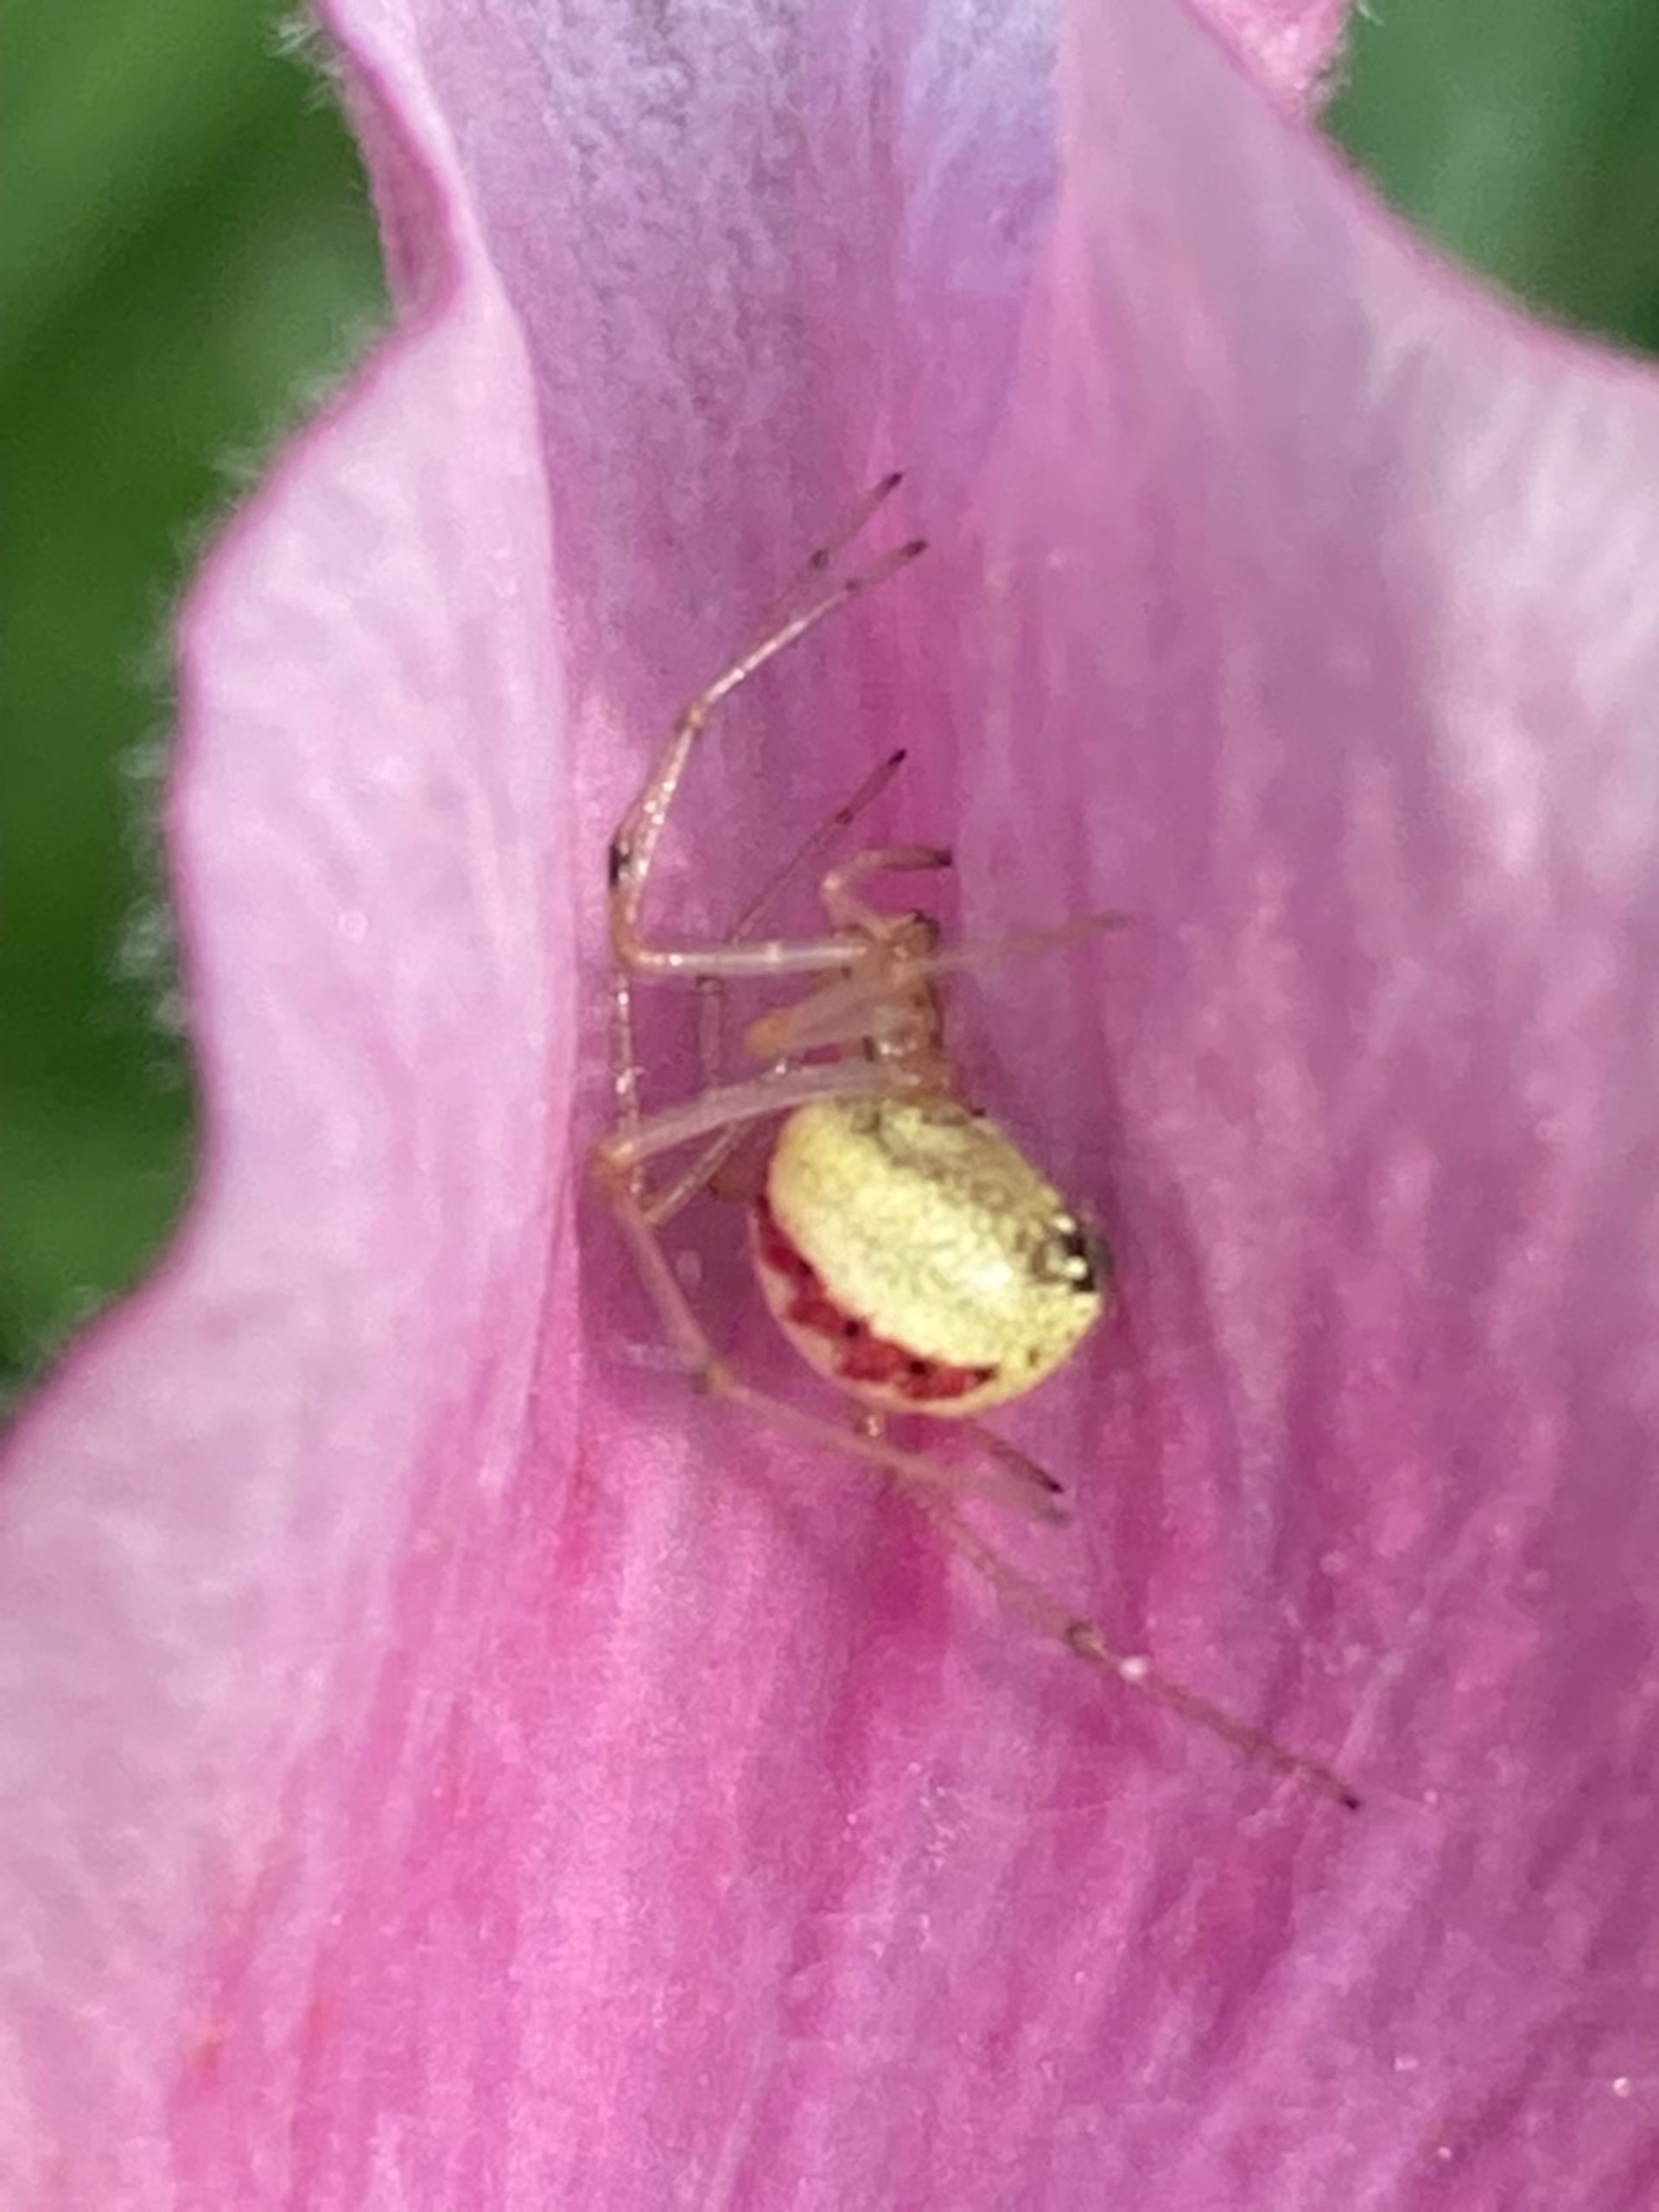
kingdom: Animalia
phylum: Arthropoda
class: Arachnida
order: Araneae
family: Theridiidae
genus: Enoplognatha
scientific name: Enoplognatha
